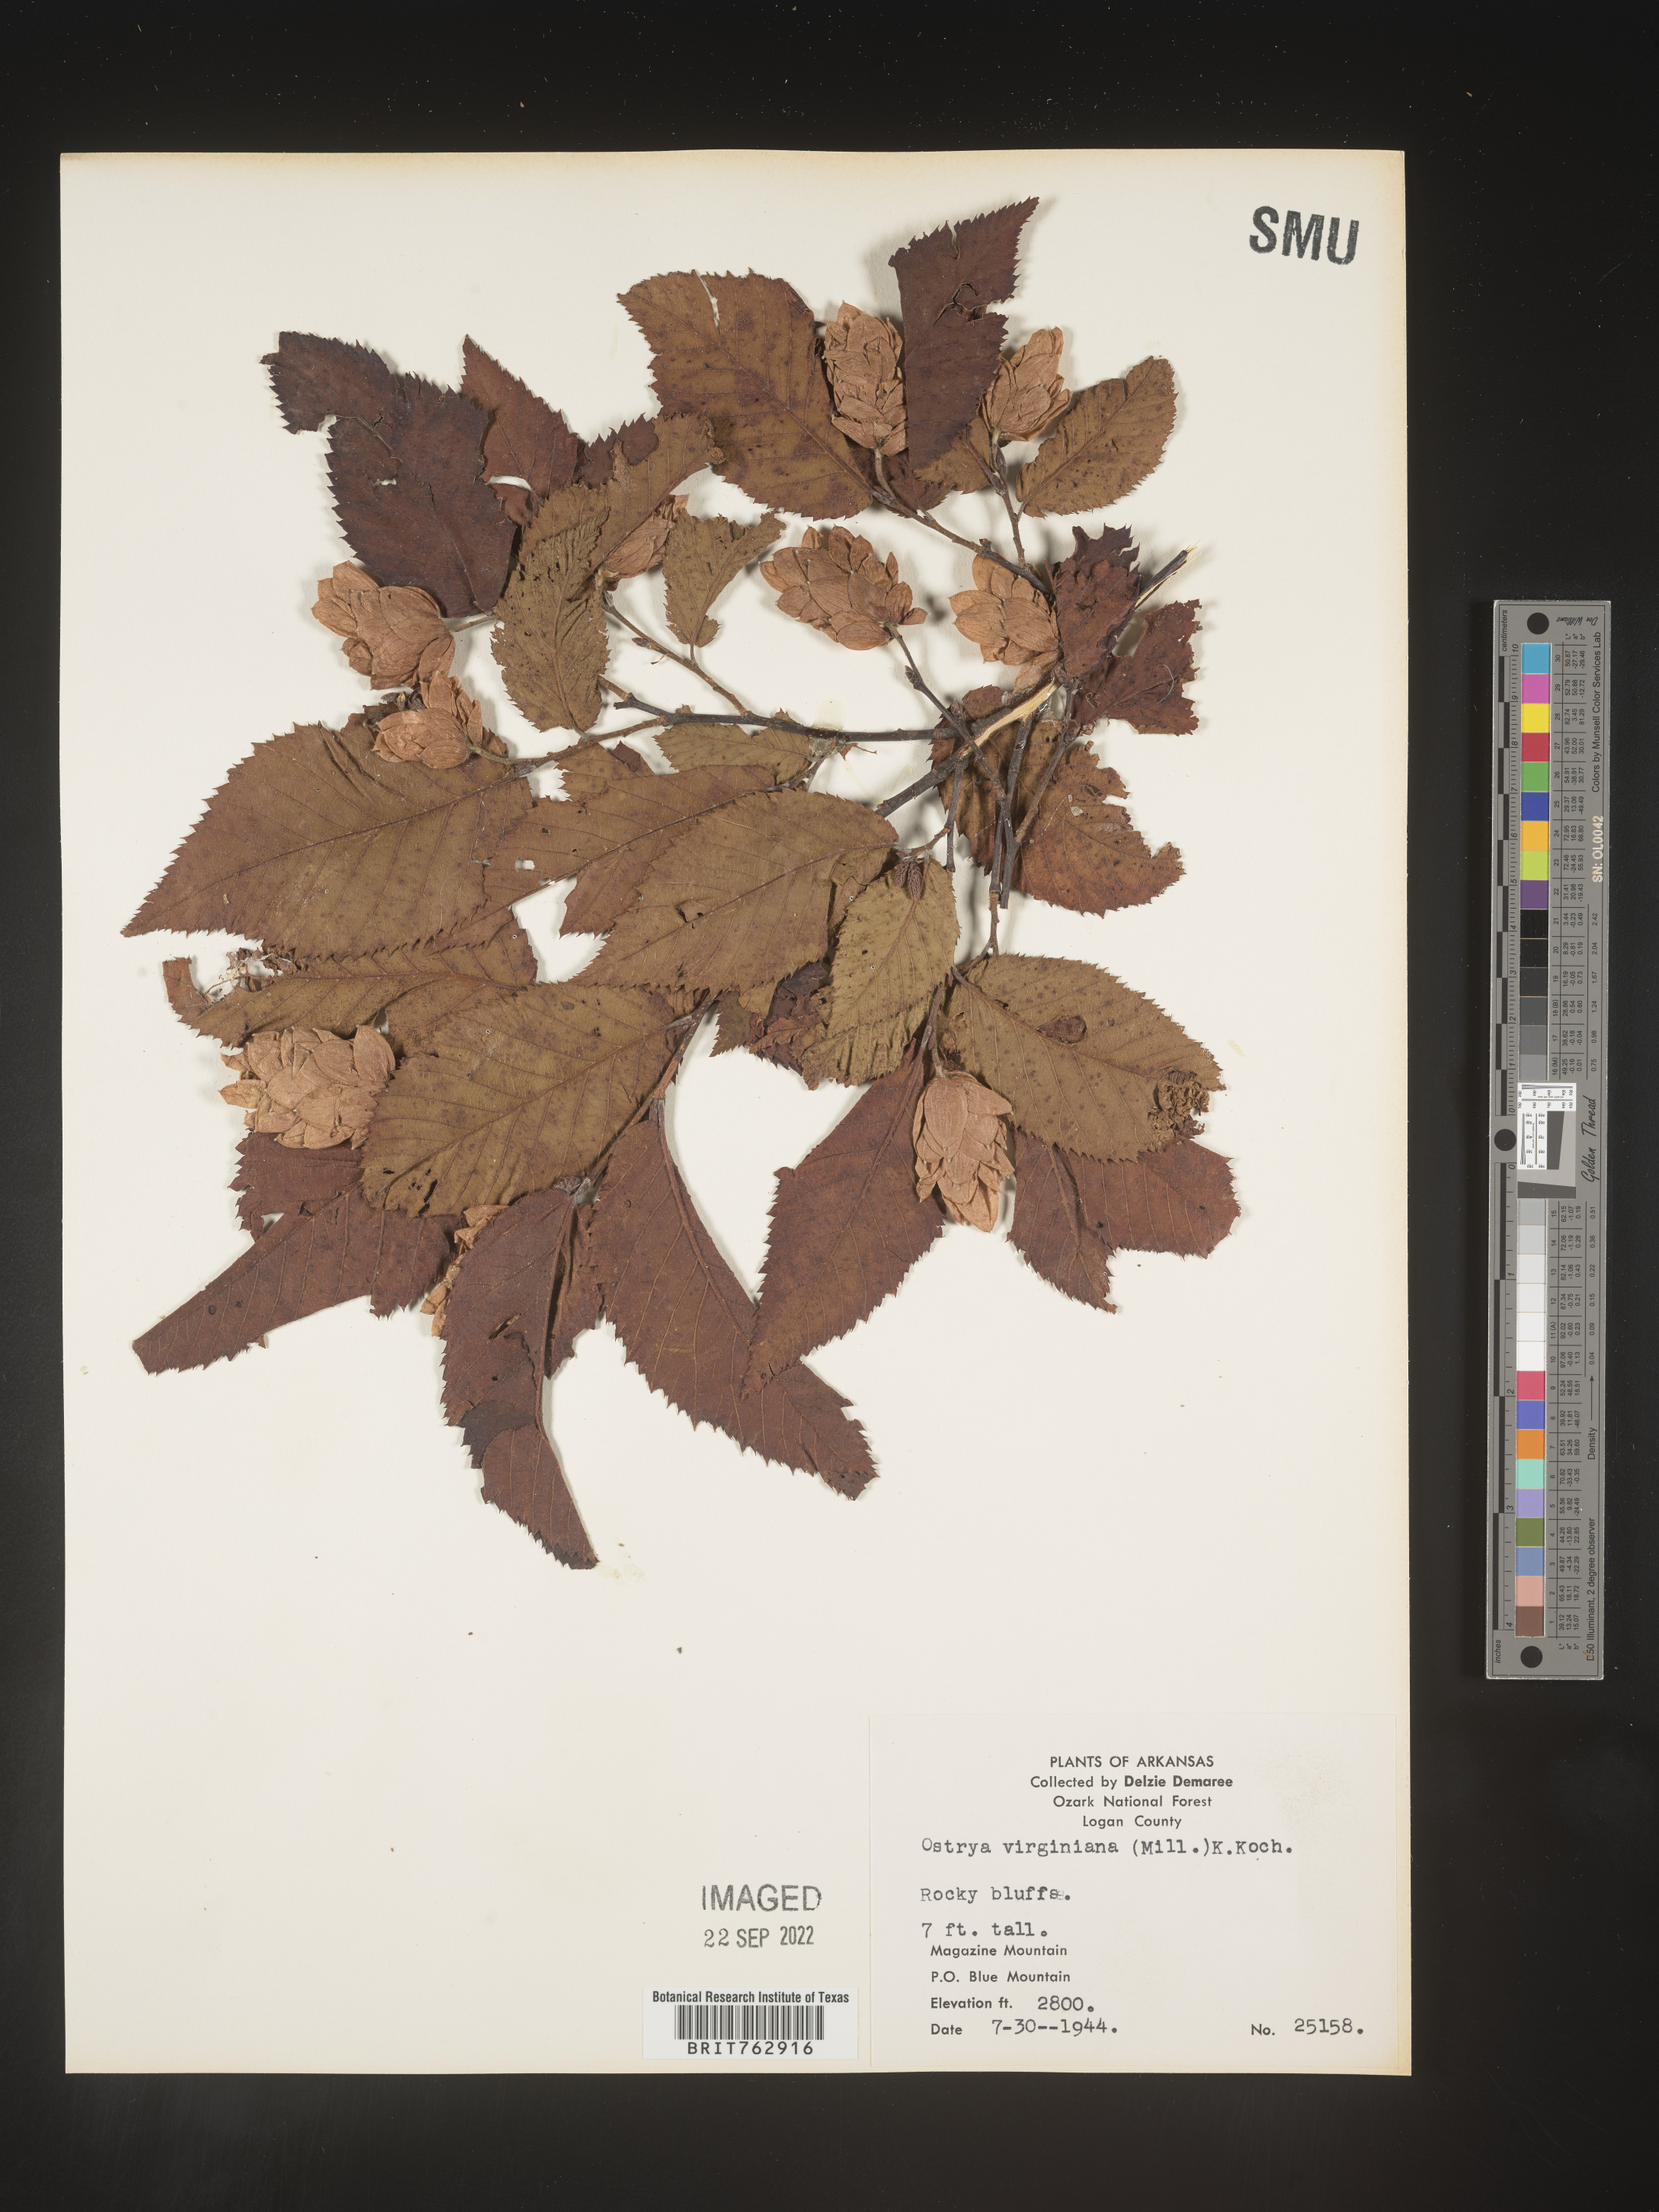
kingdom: Plantae
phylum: Tracheophyta
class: Magnoliopsida
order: Fagales
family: Betulaceae
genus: Ostrya
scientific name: Ostrya virginiana
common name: Ironwood
